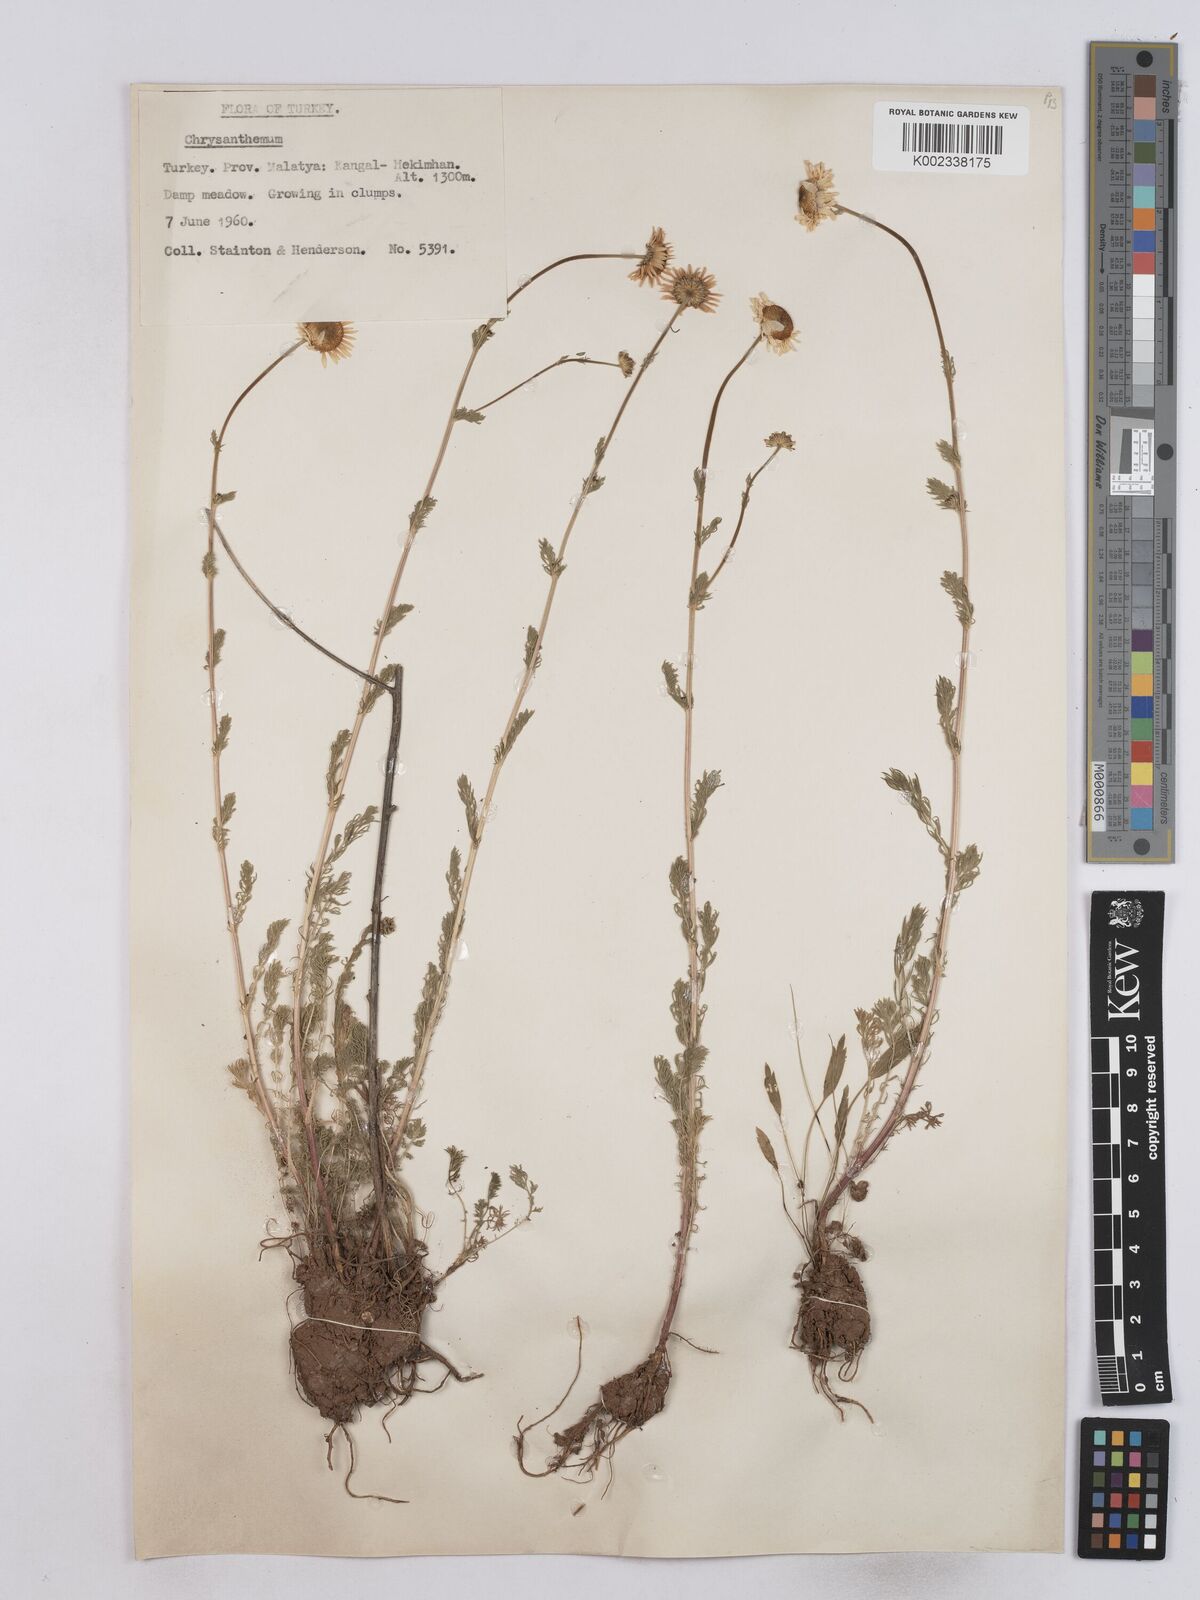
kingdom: Plantae
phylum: Tracheophyta
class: Magnoliopsida
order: Asterales
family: Asteraceae
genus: Matricaria
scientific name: Matricaria
